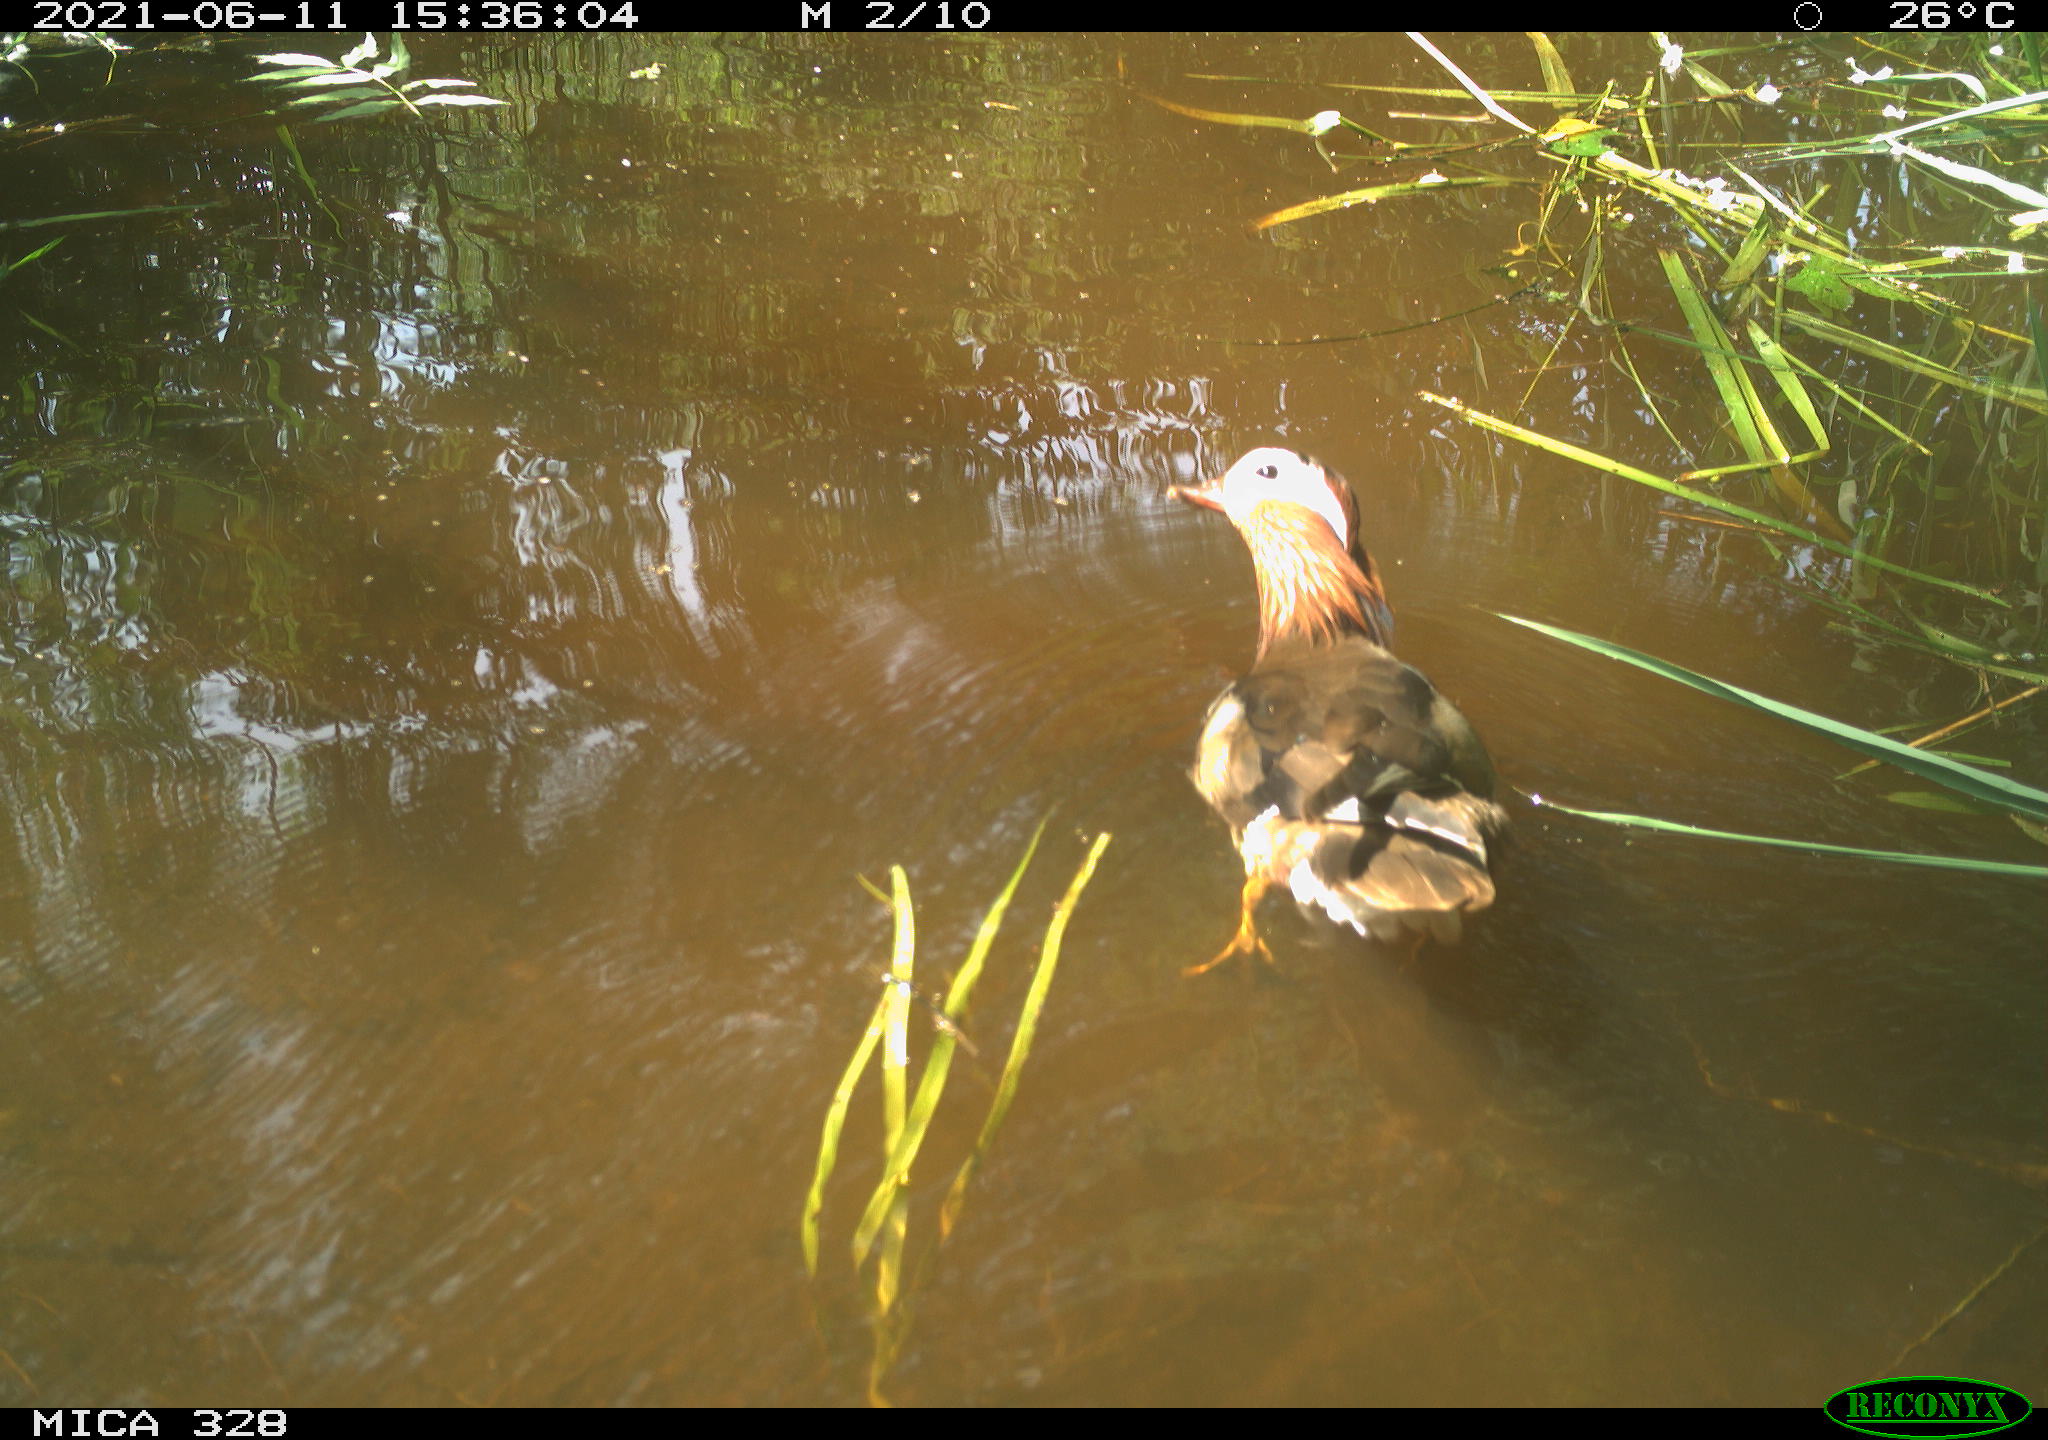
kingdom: Animalia
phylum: Chordata
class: Aves
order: Anseriformes
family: Anatidae
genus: Aix
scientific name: Aix galericulata
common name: Mandarin duck
